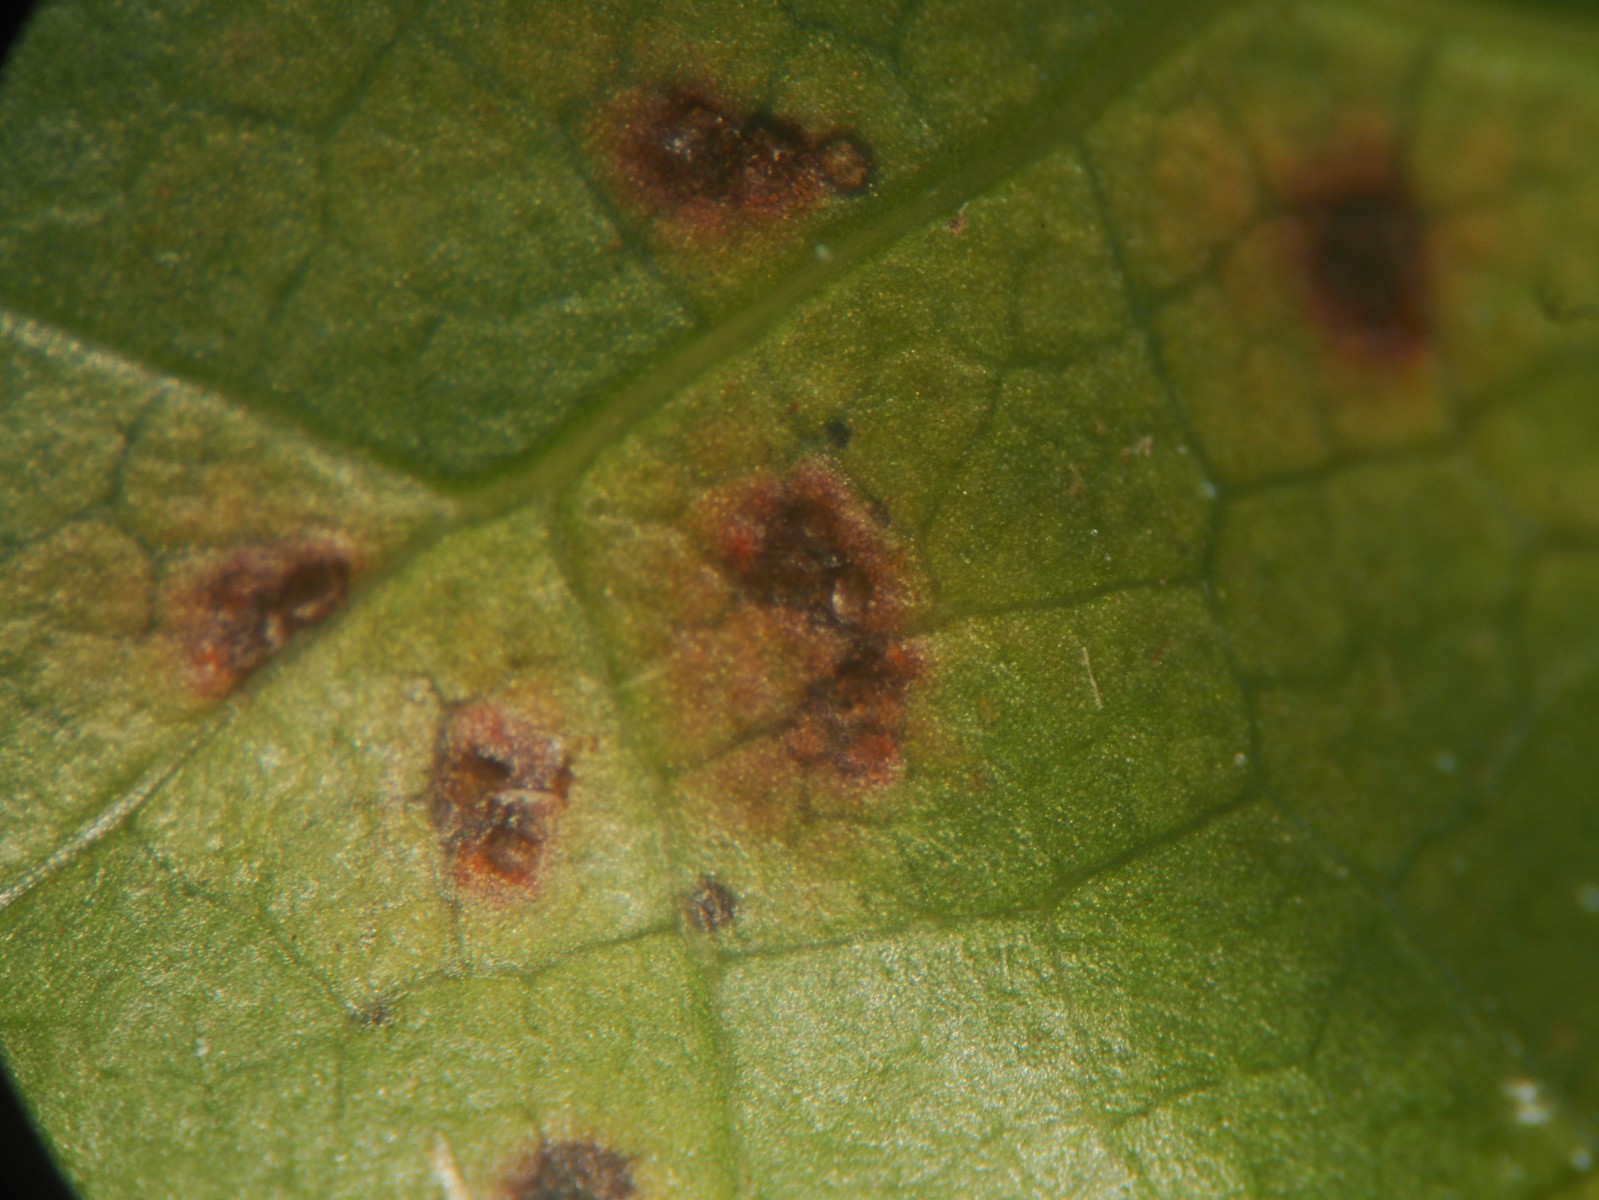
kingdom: Fungi
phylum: Basidiomycota
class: Pucciniomycetes
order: Pucciniales
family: Pucciniaceae
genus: Cumminsiella
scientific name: Cumminsiella mirabilissima
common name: mahonierust
